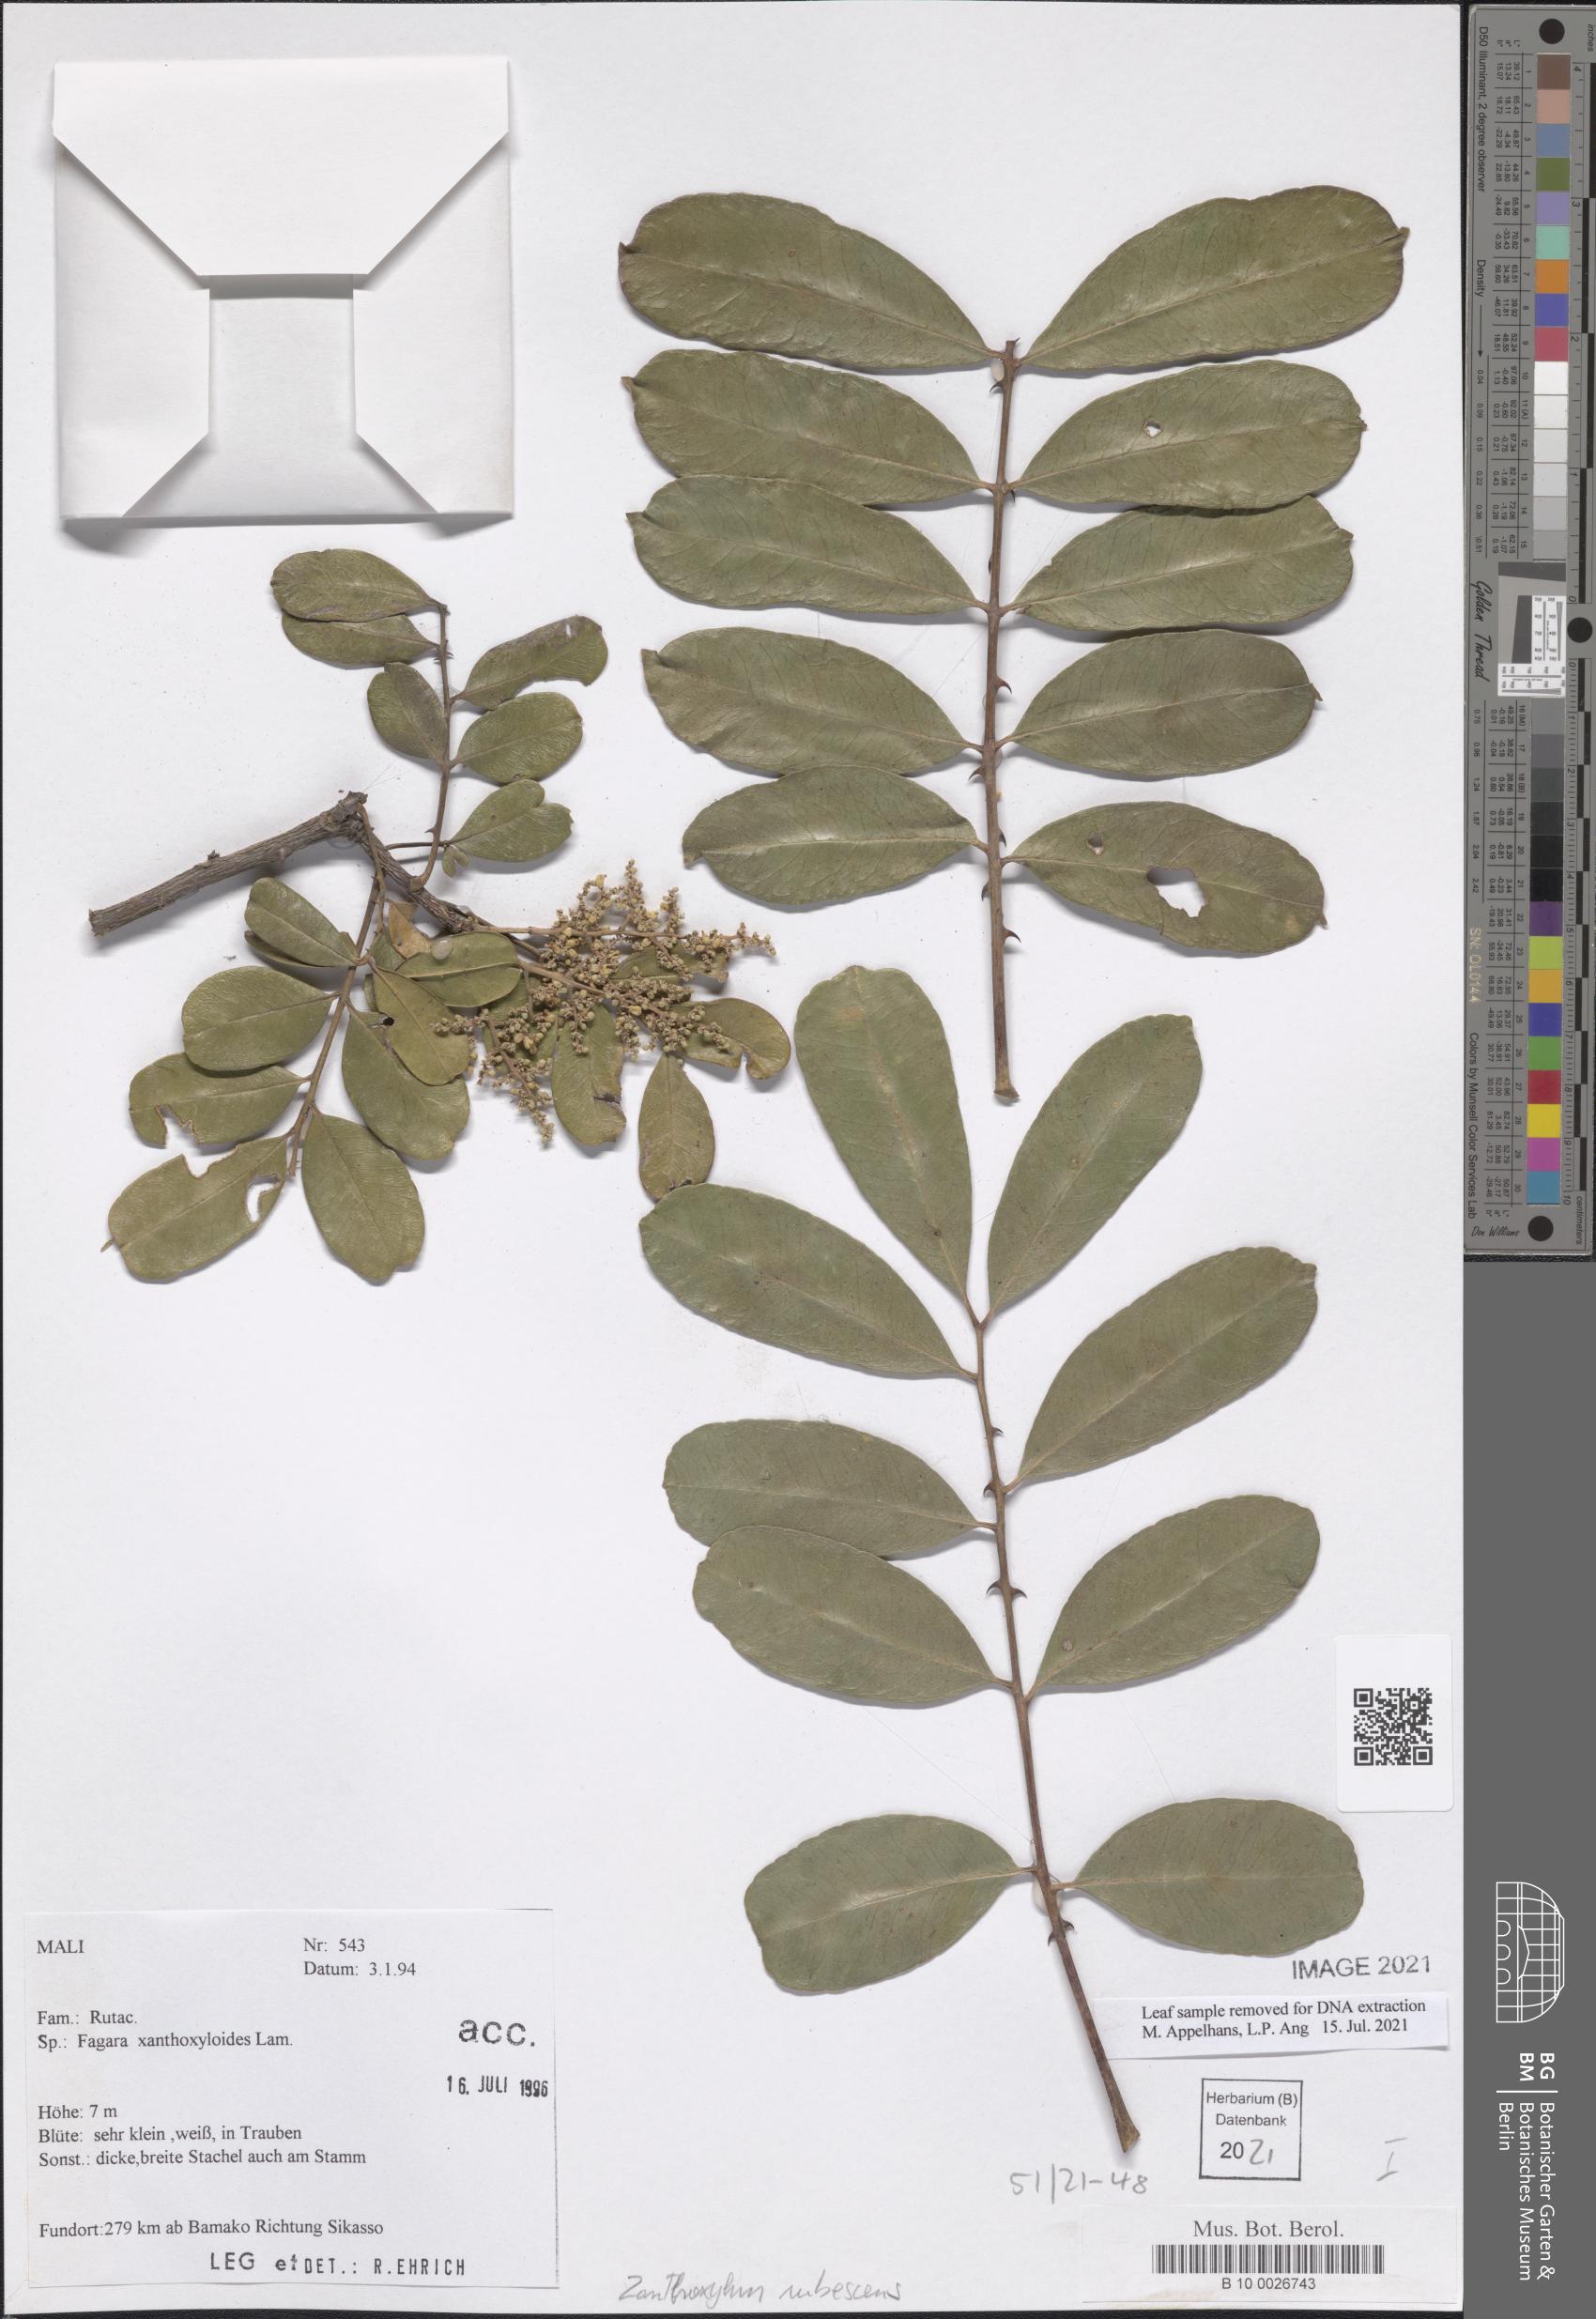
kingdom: Plantae
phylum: Tracheophyta
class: Magnoliopsida
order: Sapindales
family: Rutaceae
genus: Zanthoxylum
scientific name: Zanthoxylum zanthoxyloides
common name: Senegal prickly-ash
